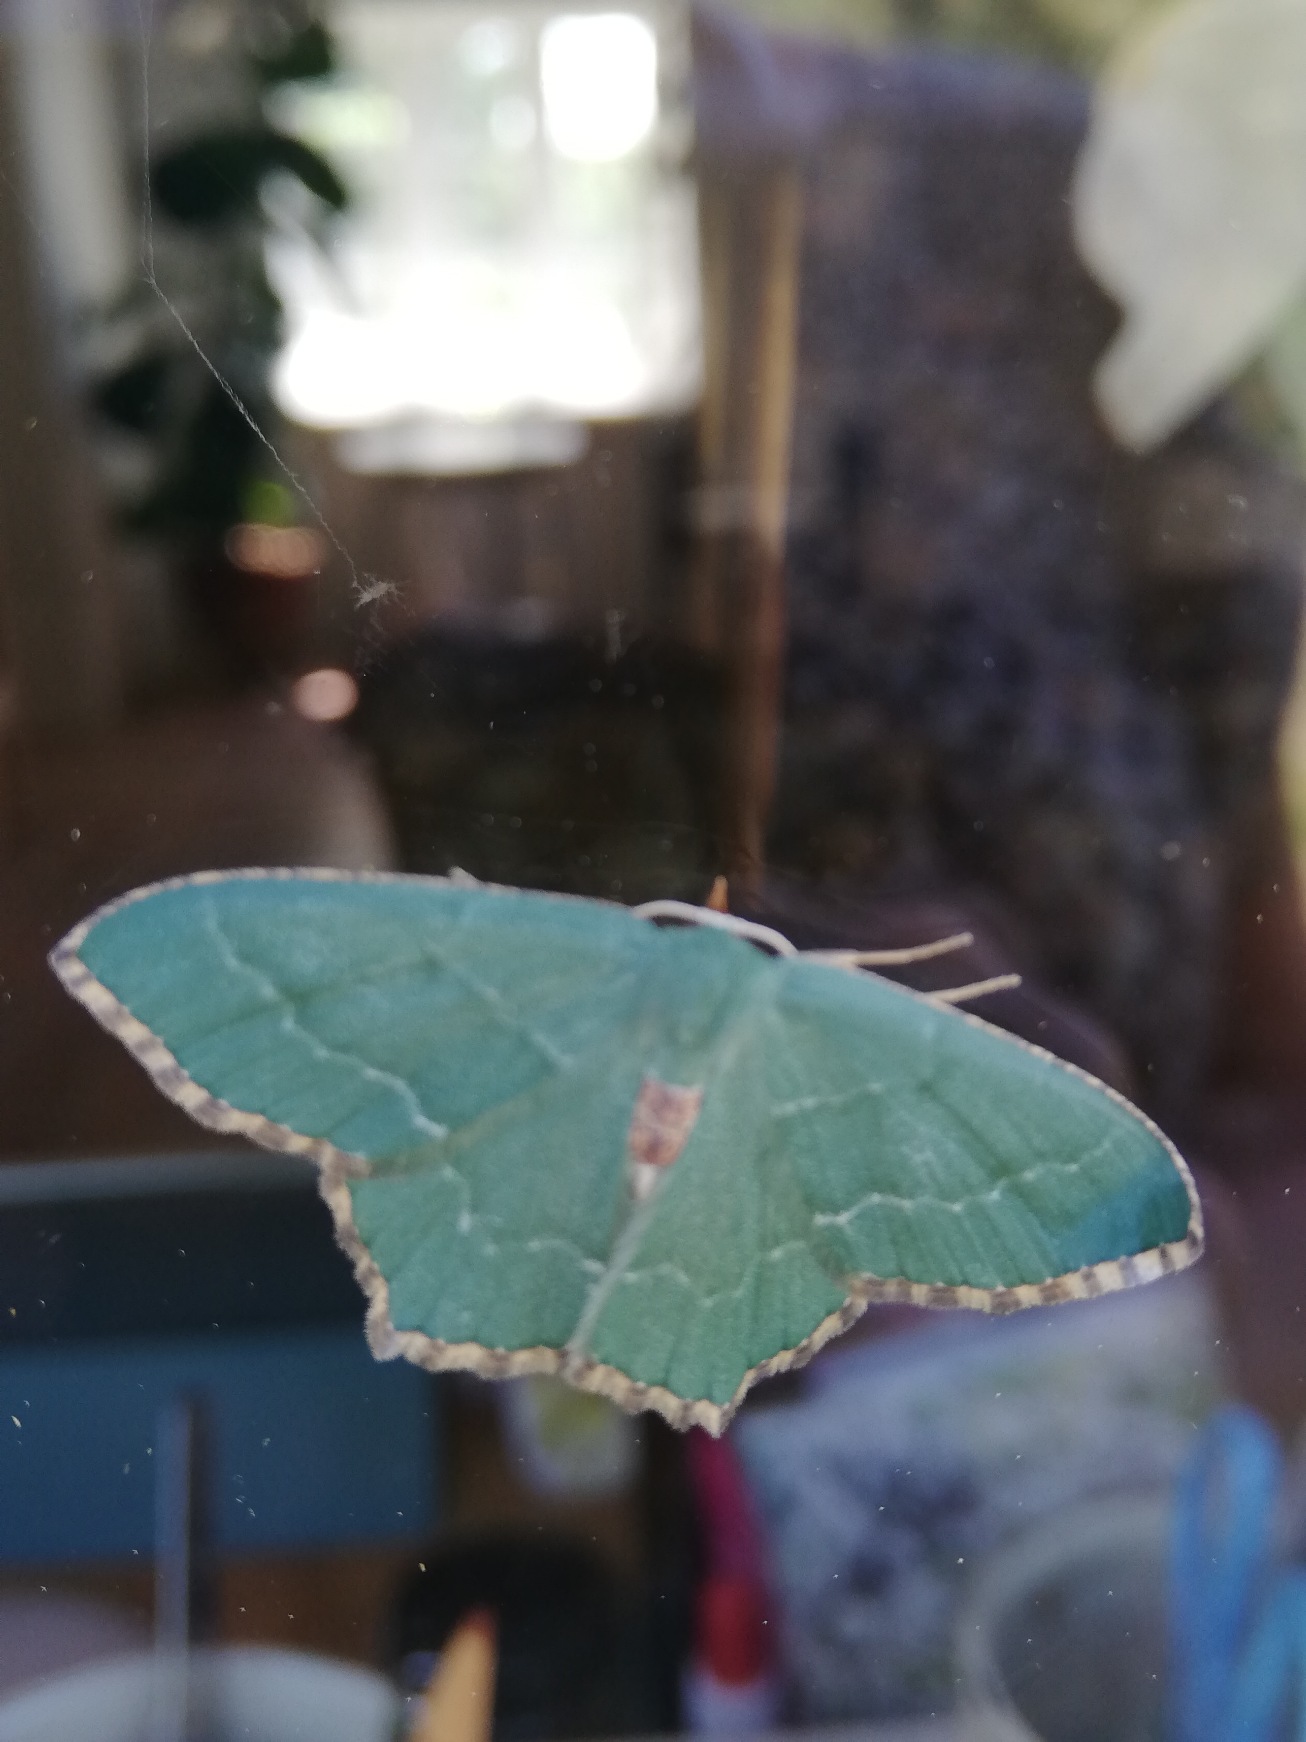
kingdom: Animalia
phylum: Arthropoda
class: Insecta
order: Lepidoptera
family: Geometridae
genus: Hemithea
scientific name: Hemithea aestivaria
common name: Lundmåler
